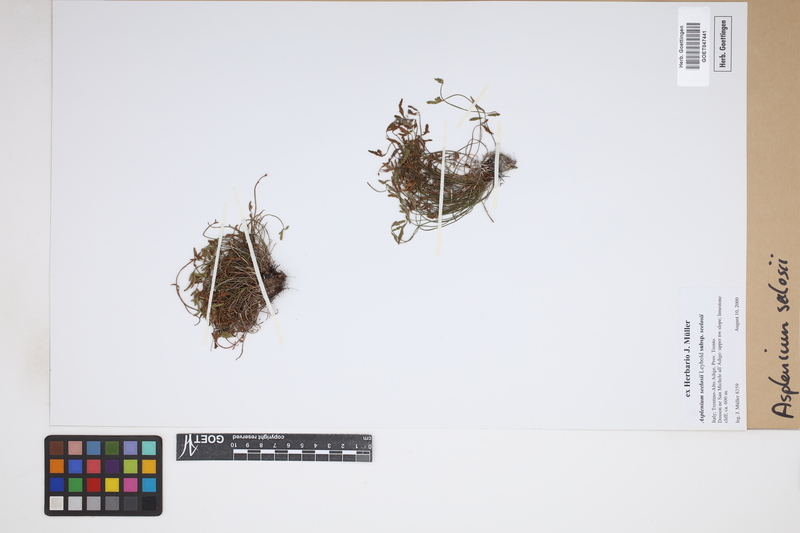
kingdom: Plantae
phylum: Tracheophyta
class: Polypodiopsida
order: Polypodiales
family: Aspleniaceae
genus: Asplenium
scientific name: Asplenium seelosii
